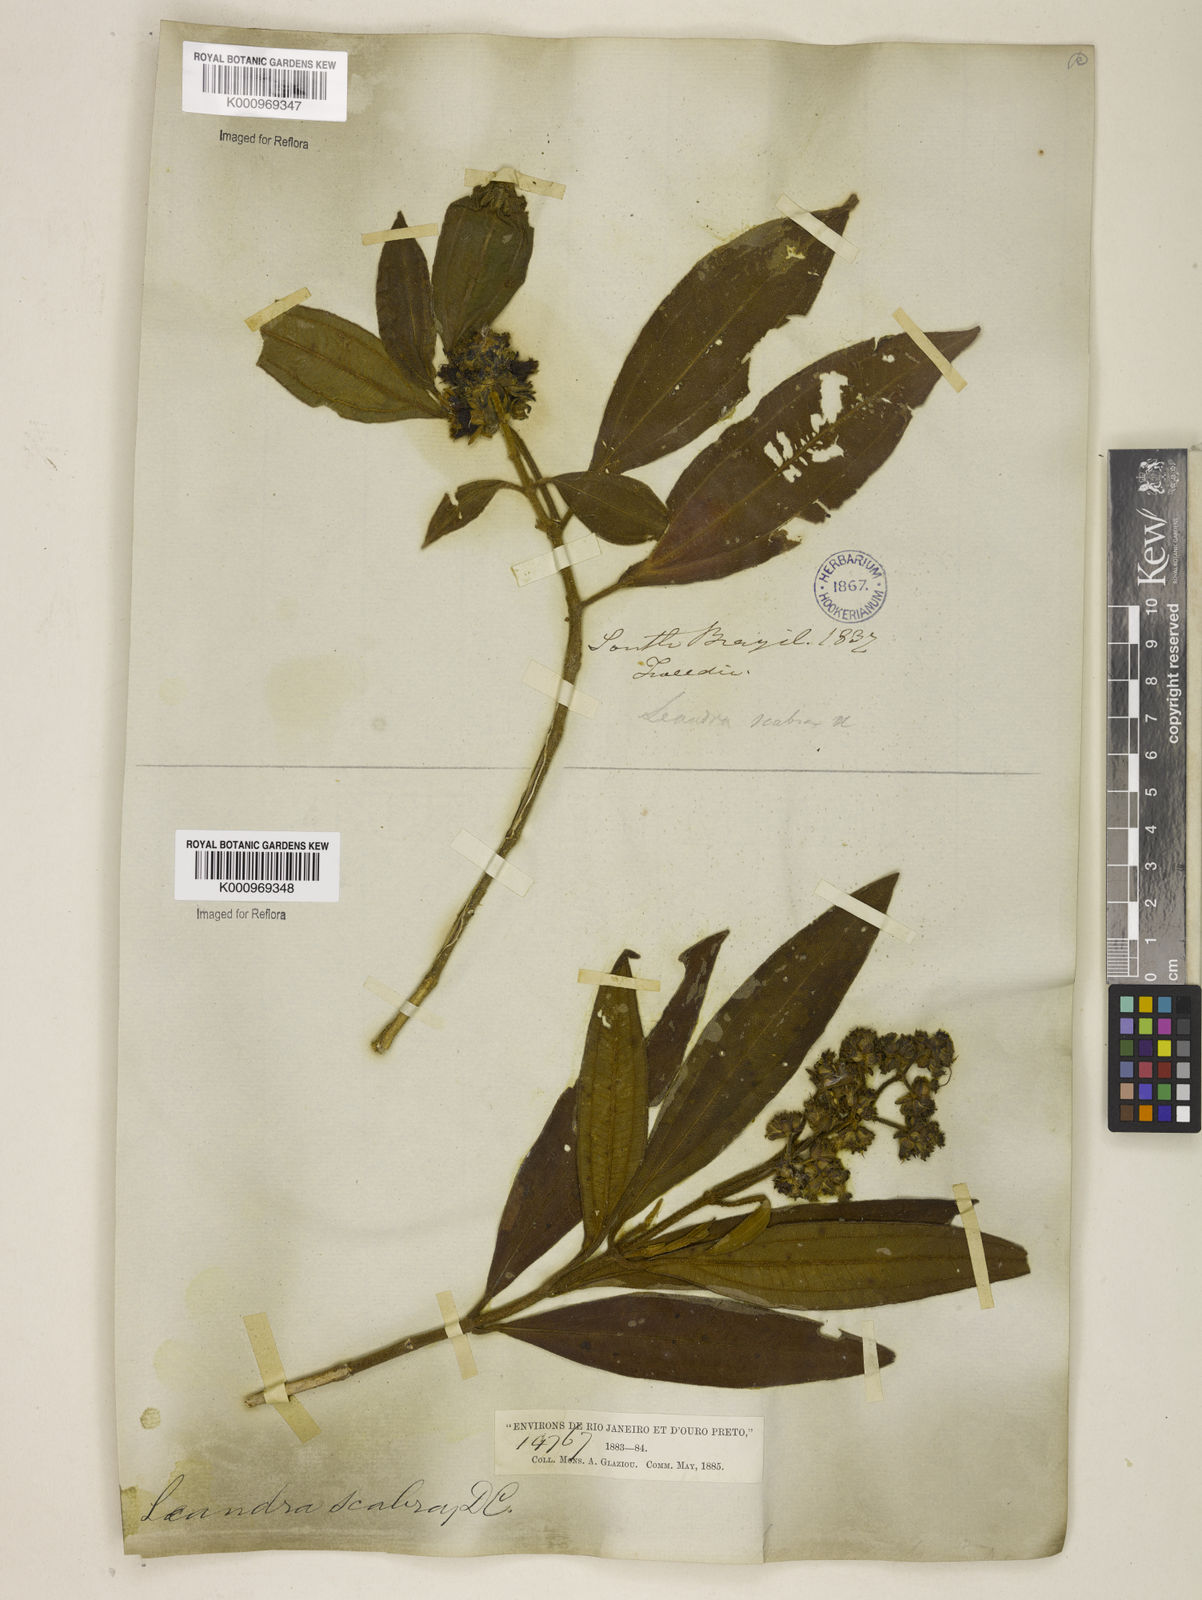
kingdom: Plantae
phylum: Tracheophyta
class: Magnoliopsida
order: Myrtales
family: Melastomataceae
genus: Miconia
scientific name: Miconia melastomoides
